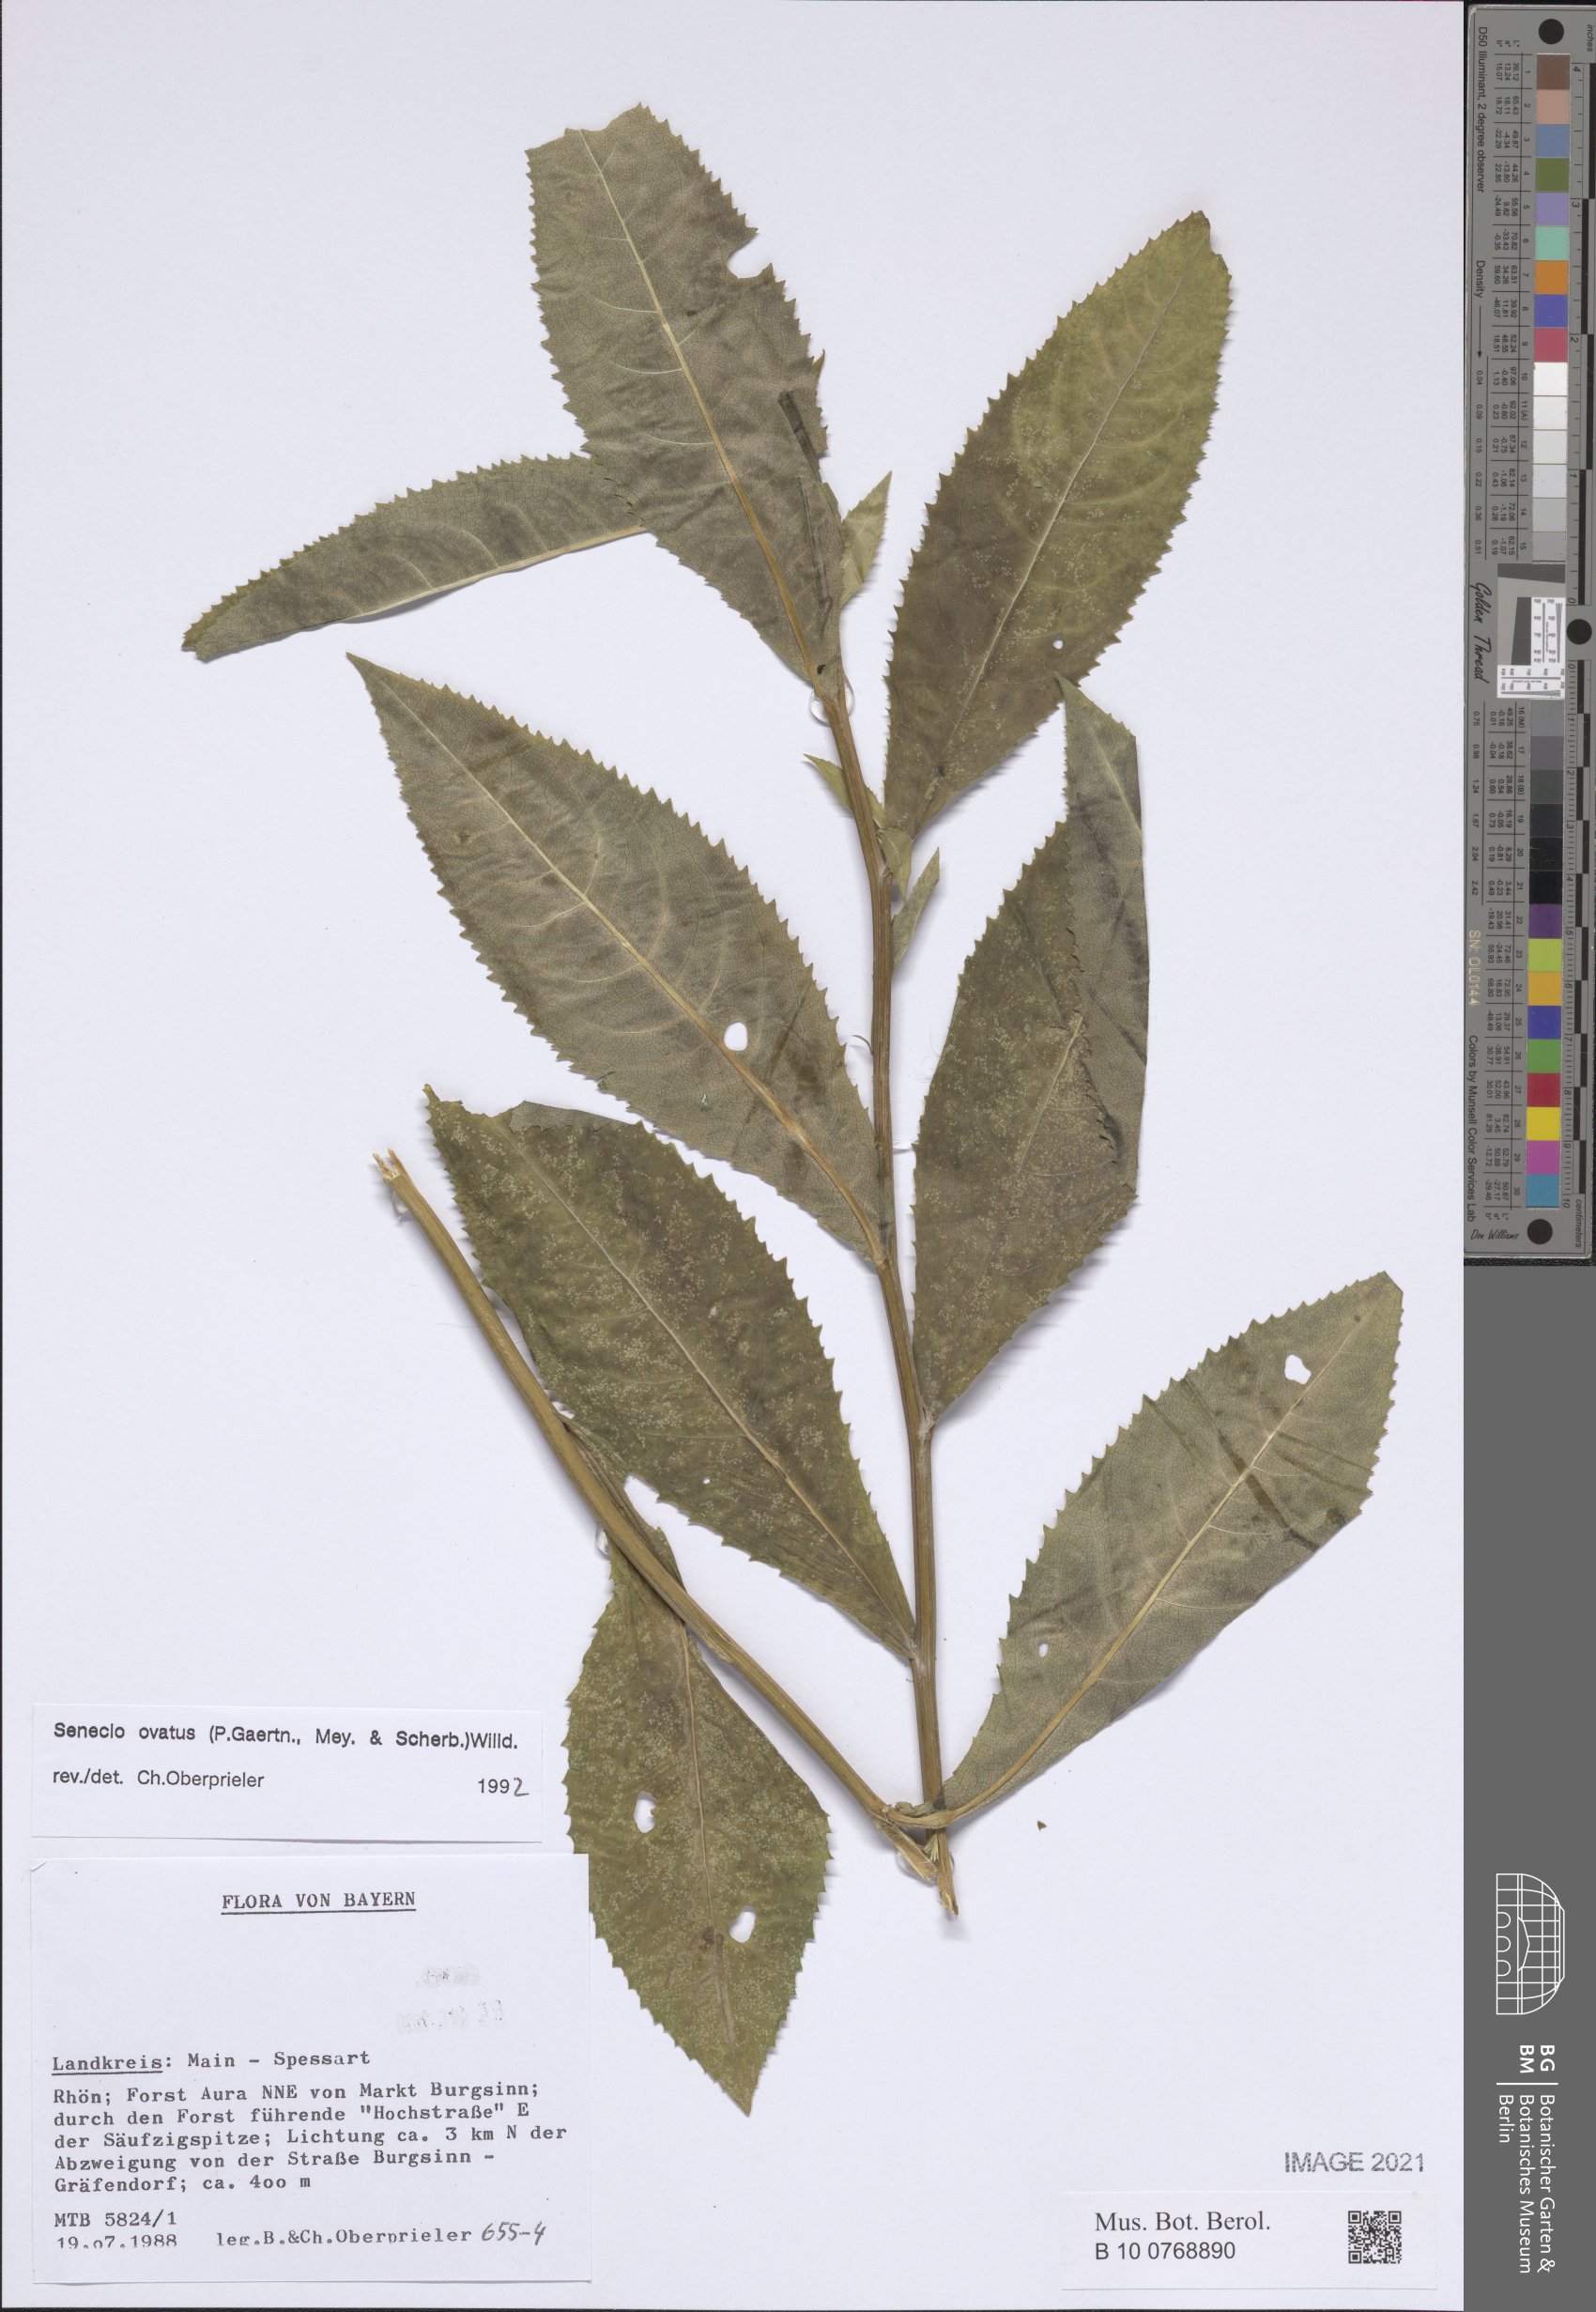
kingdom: Plantae
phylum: Tracheophyta
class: Magnoliopsida
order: Asterales
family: Asteraceae
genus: Senecio
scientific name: Senecio ovatus
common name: Wood ragwort
